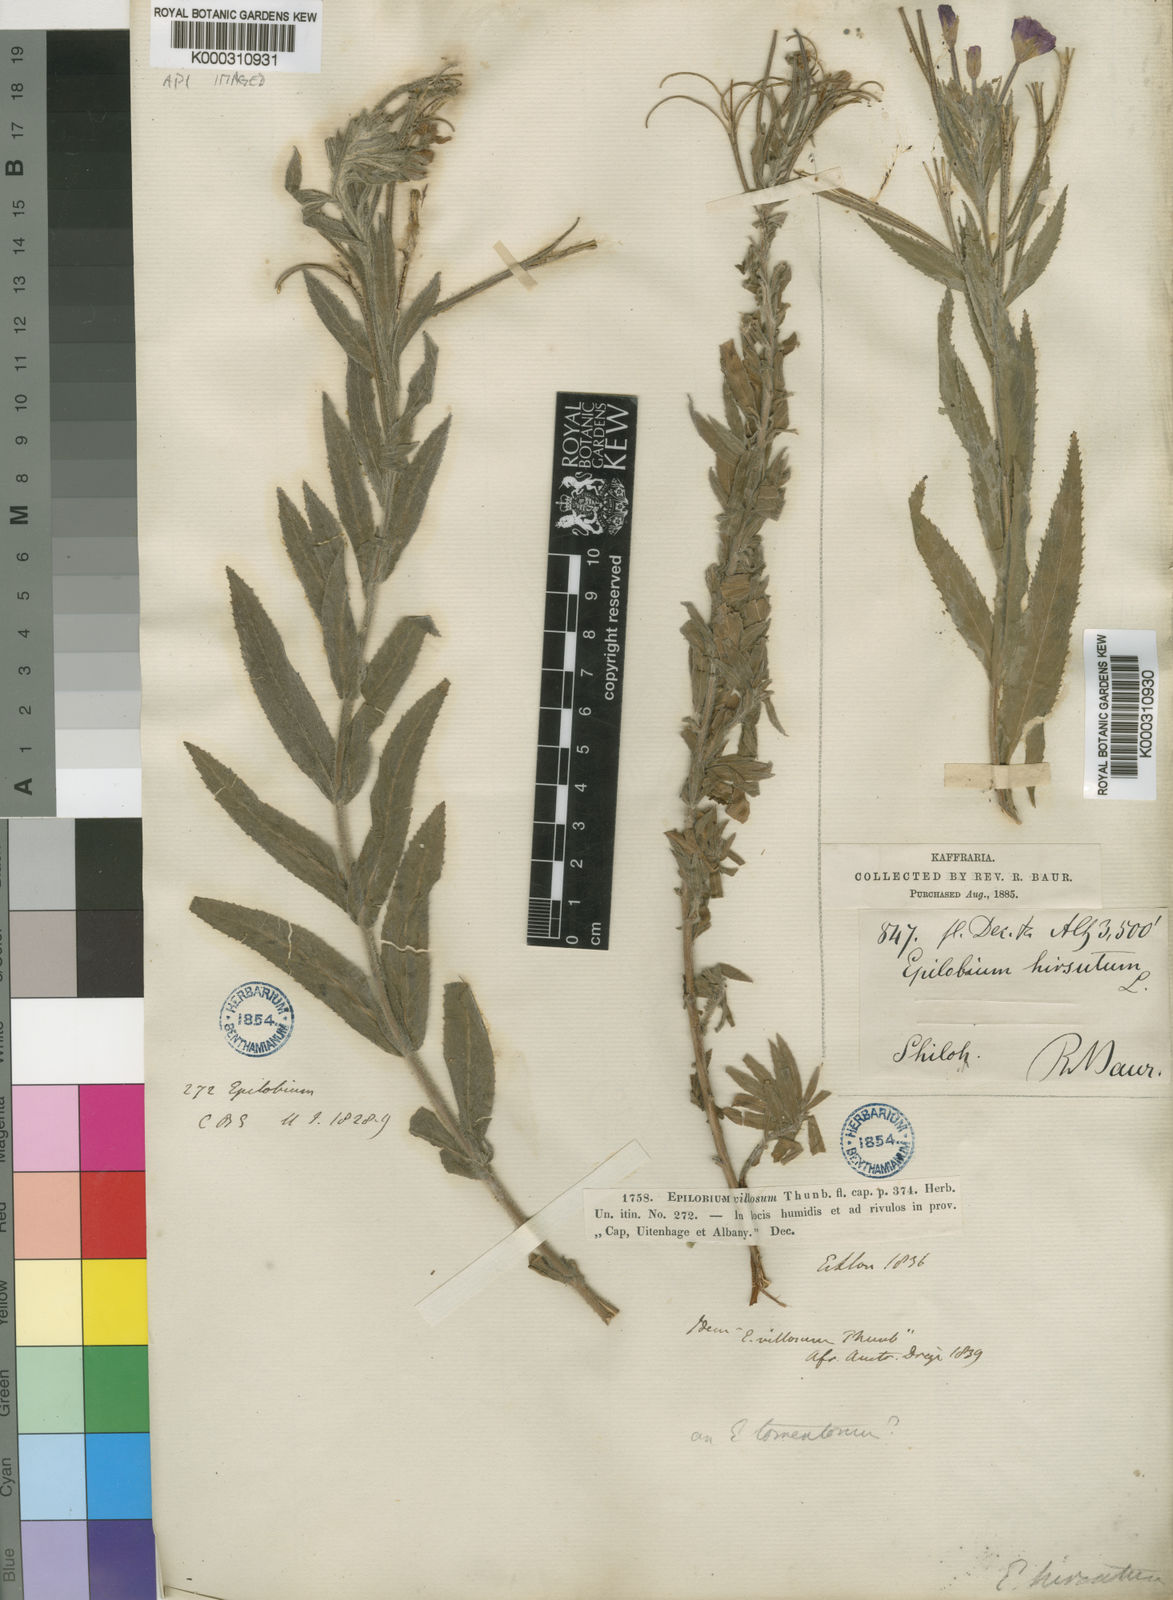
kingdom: Plantae
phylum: Tracheophyta
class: Magnoliopsida
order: Myrtales
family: Onagraceae
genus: Epilobium
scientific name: Epilobium hirsutum
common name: Great willowherb
